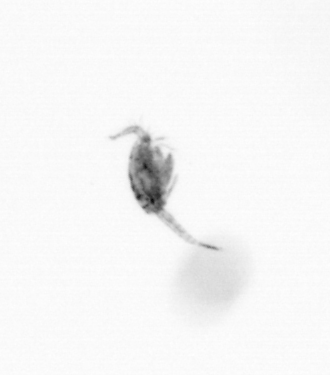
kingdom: Animalia
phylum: Arthropoda
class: Copepoda
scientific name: Copepoda
